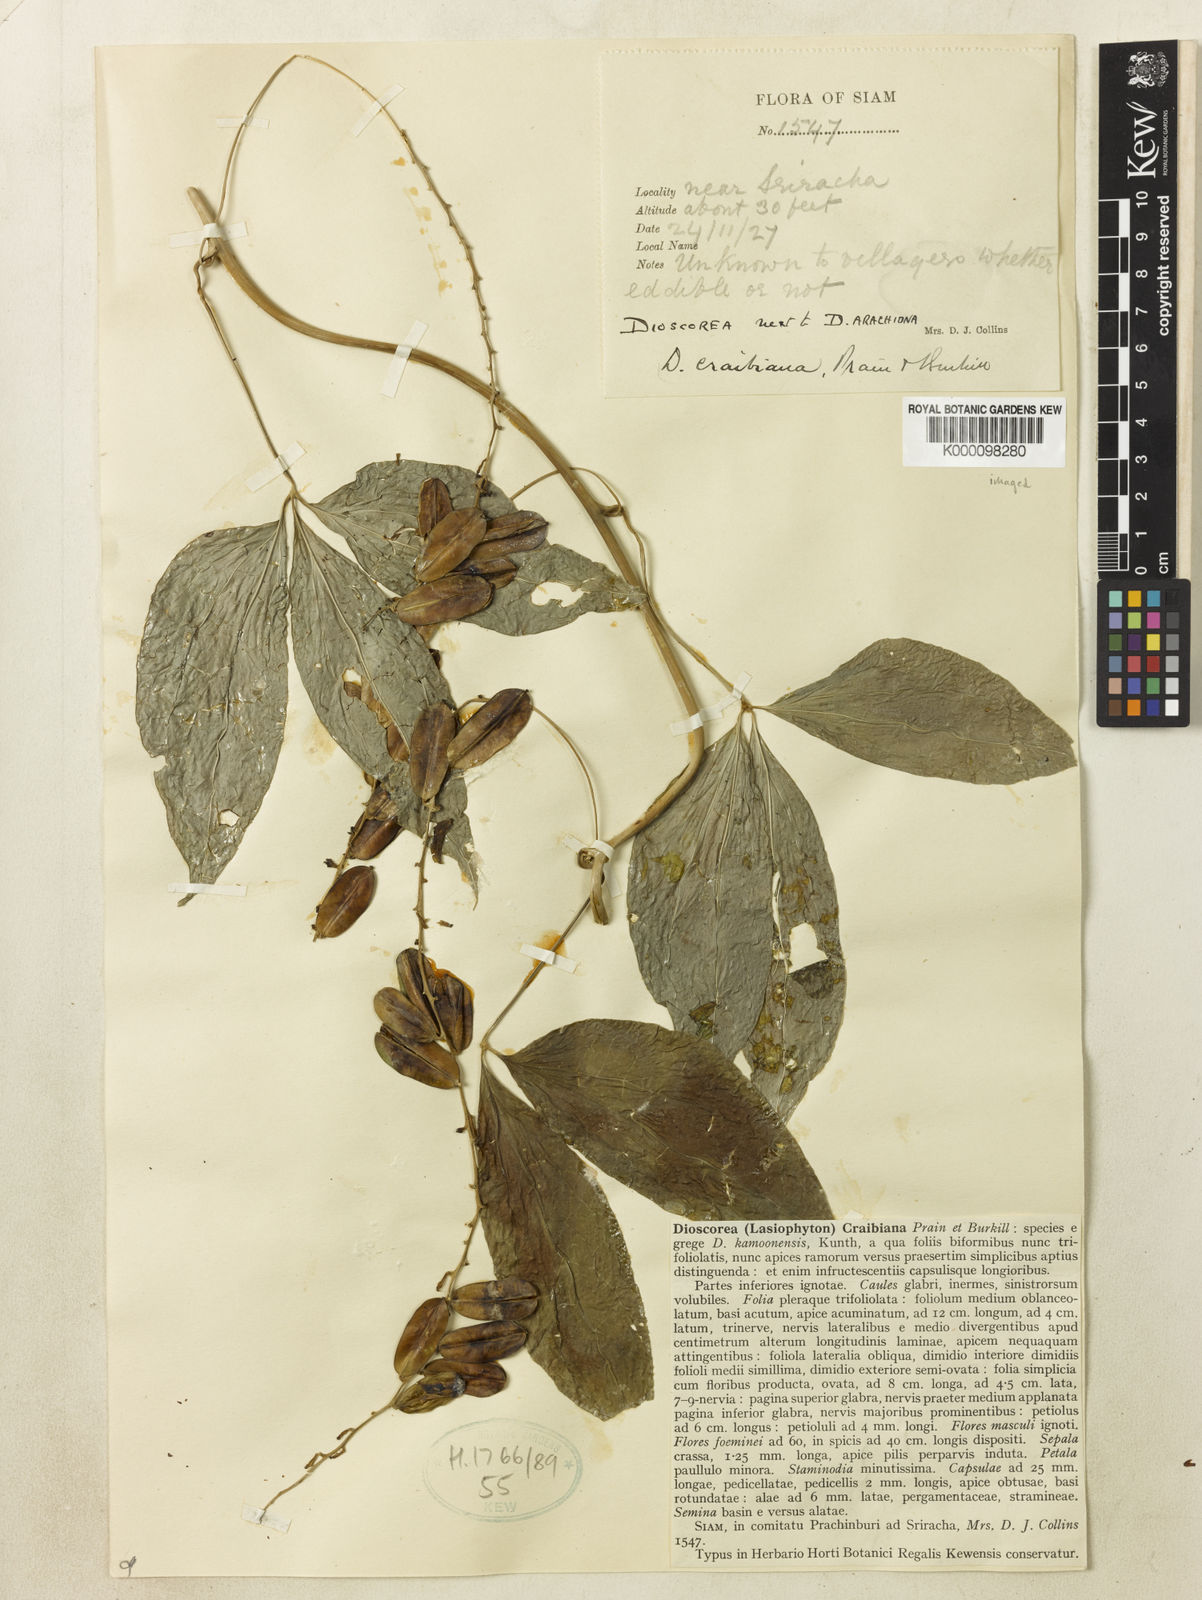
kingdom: Plantae
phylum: Tracheophyta
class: Liliopsida
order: Dioscoreales
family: Dioscoreaceae
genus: Dioscorea
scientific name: Dioscorea craibiana
